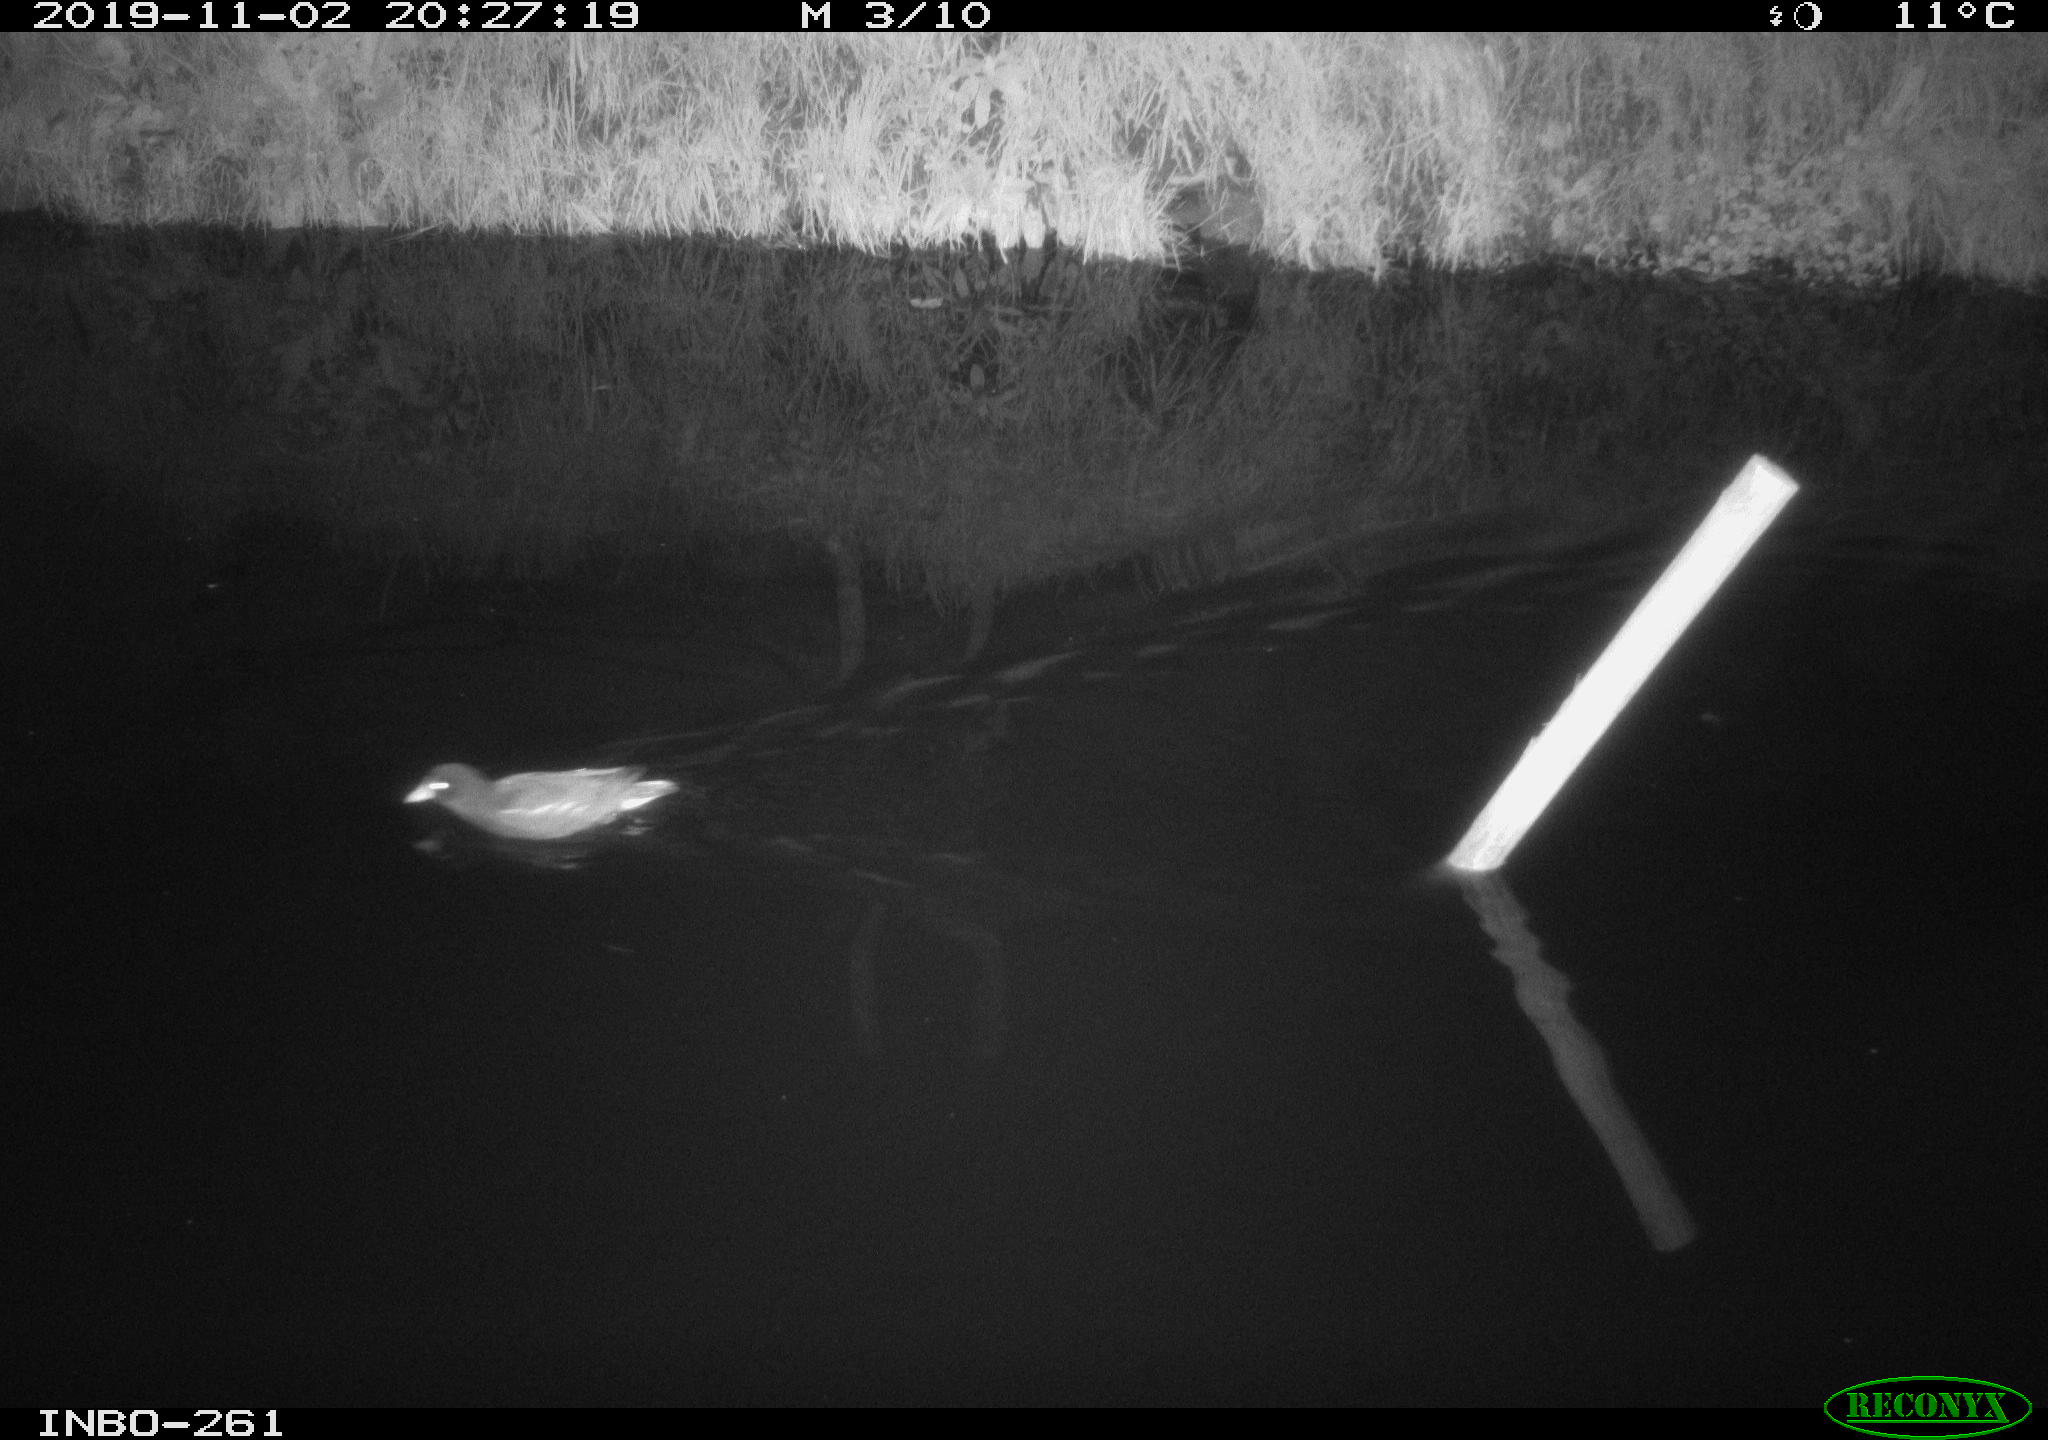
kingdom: Animalia
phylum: Chordata
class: Aves
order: Gruiformes
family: Rallidae
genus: Gallinula
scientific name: Gallinula chloropus
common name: Common moorhen
